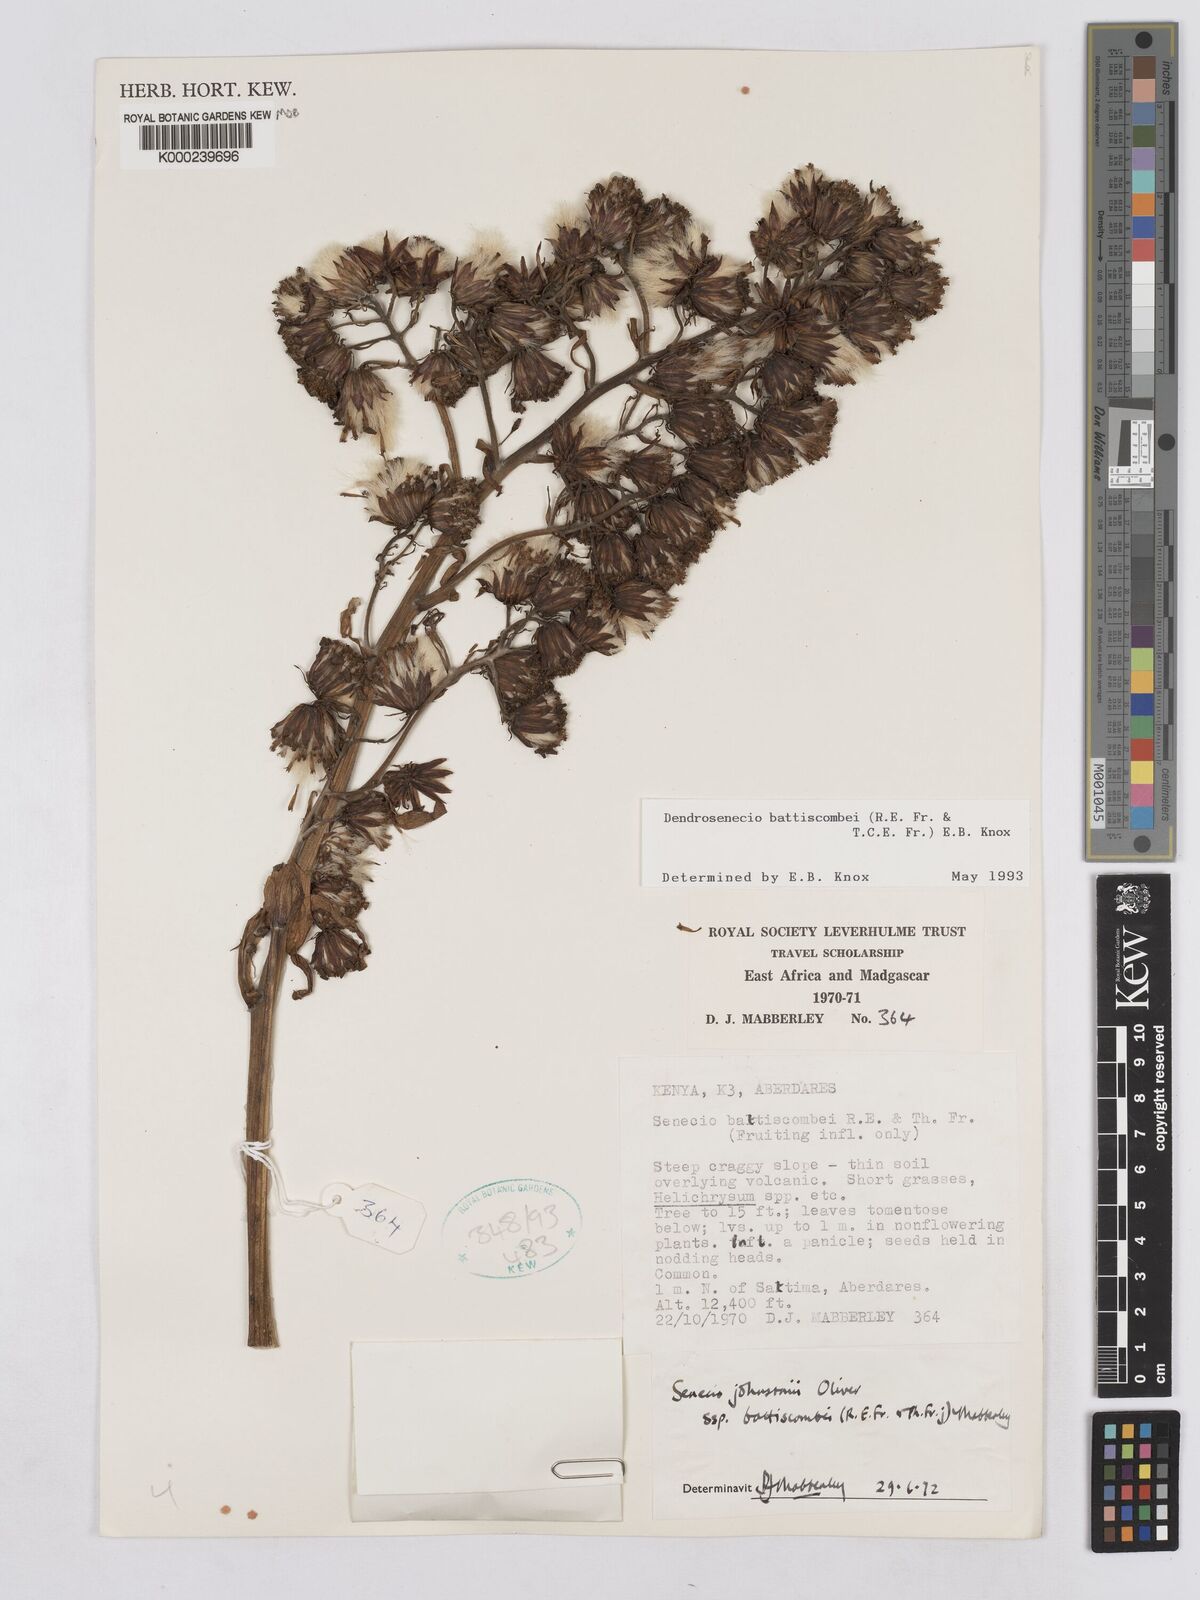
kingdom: Plantae
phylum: Tracheophyta
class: Magnoliopsida
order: Asterales
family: Asteraceae
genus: Dendrosenecio
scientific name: Dendrosenecio battiscombei
